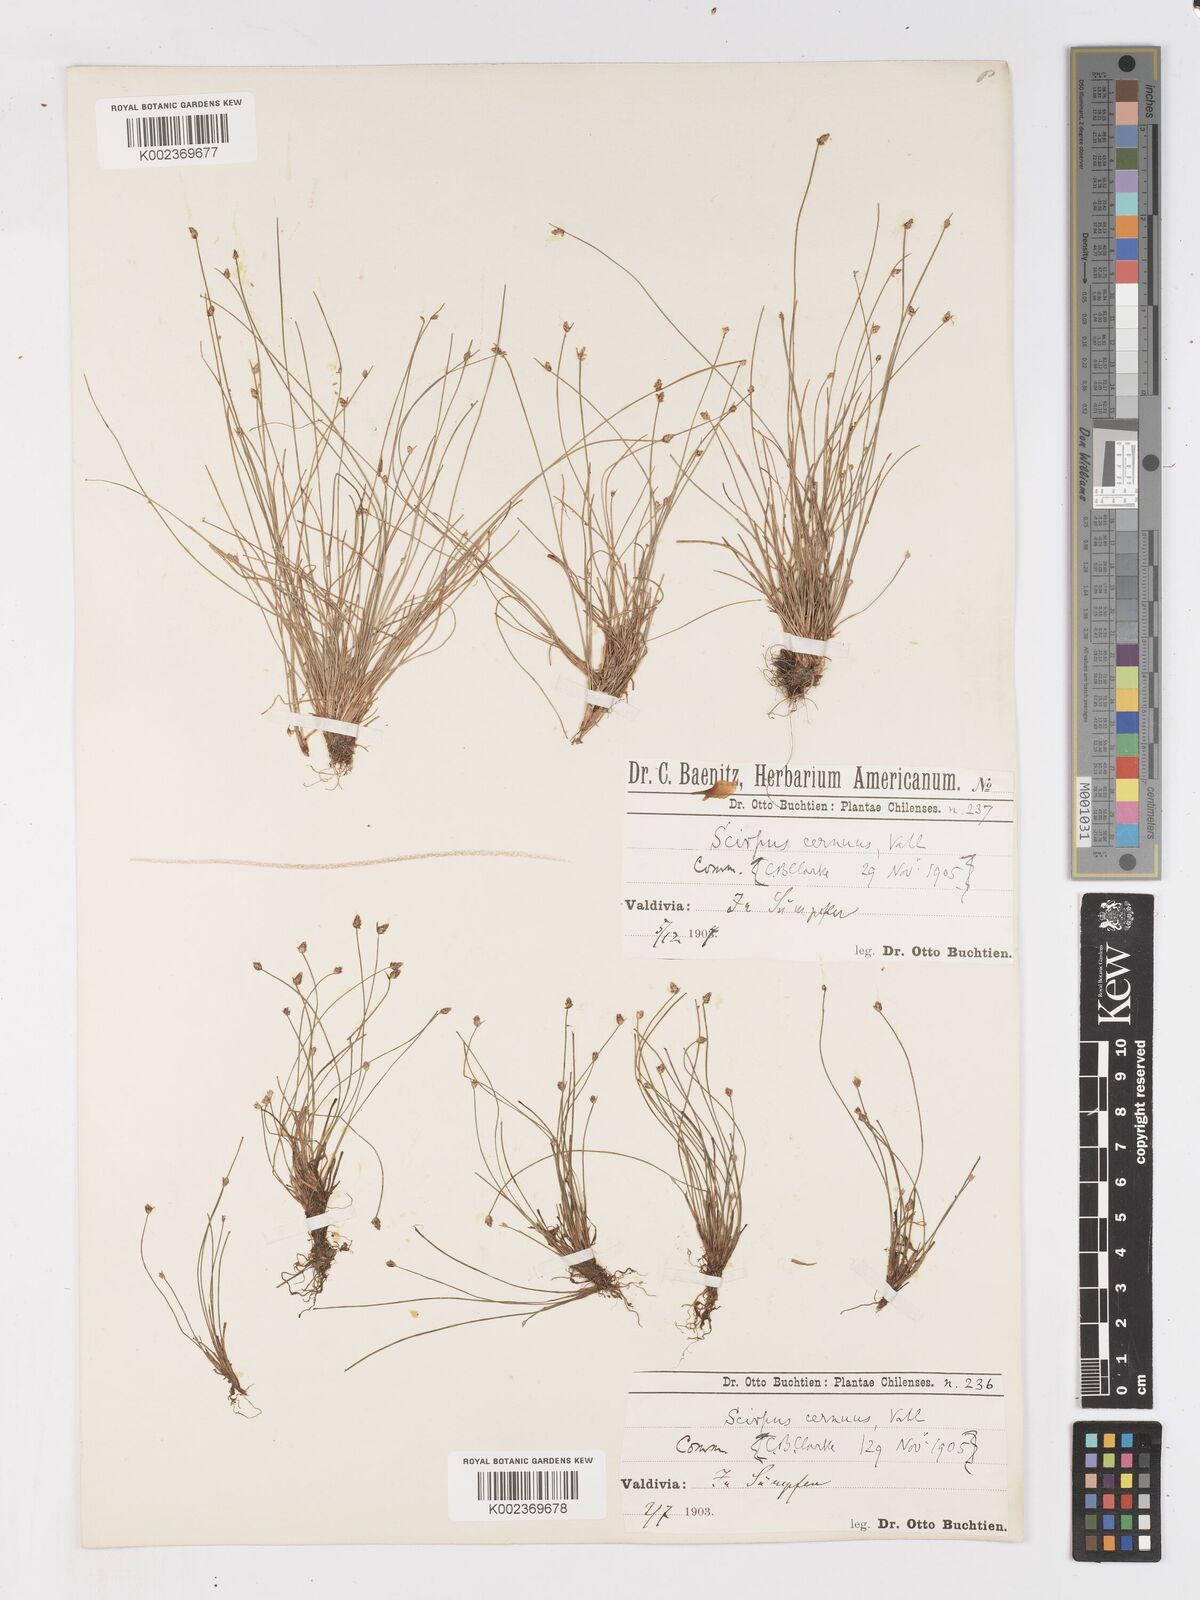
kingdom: Plantae
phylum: Tracheophyta
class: Liliopsida
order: Poales
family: Cyperaceae
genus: Isolepis
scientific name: Isolepis cernua
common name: Slender club-rush
